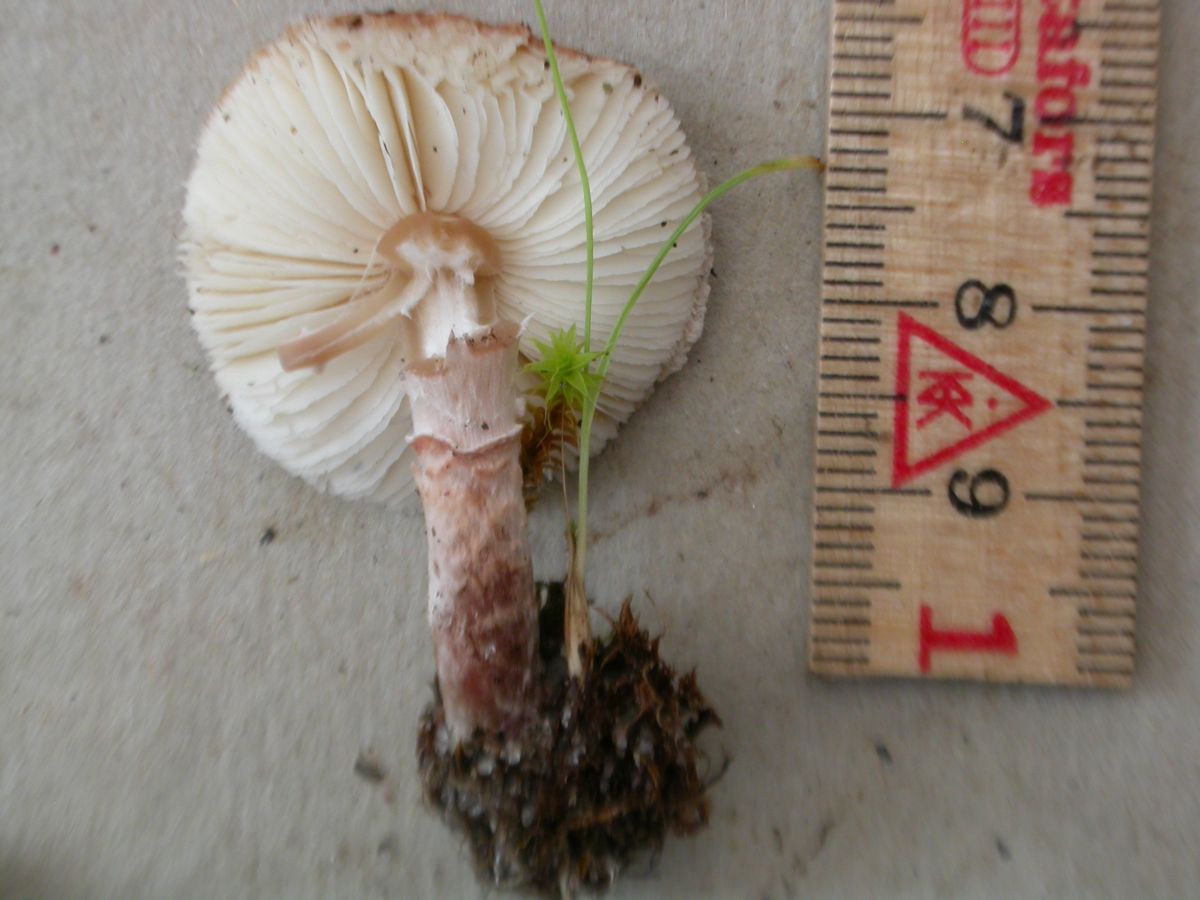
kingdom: Fungi
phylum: Basidiomycota
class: Agaricomycetes
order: Agaricales
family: Agaricaceae
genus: Lepiota
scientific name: Lepiota subincarnata
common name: kødfarvet parasolhat
